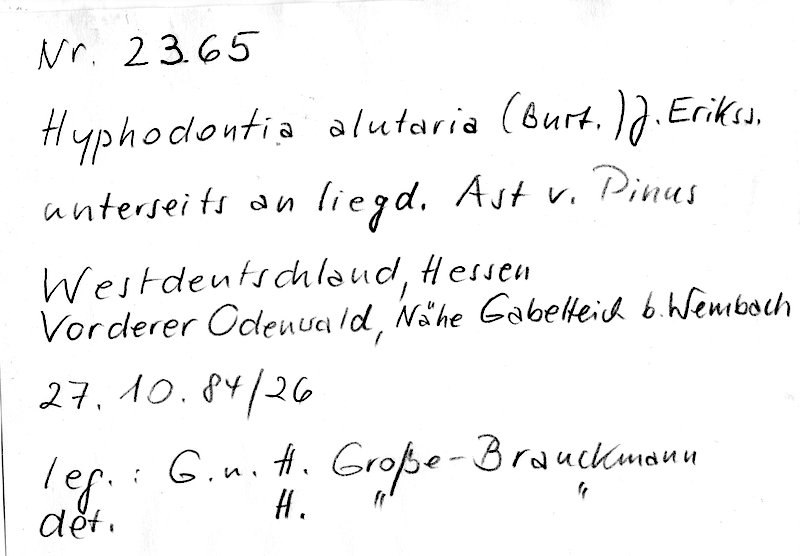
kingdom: Fungi
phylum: Basidiomycota
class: Agaricomycetes
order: Hymenochaetales
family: Hyphodontiaceae
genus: Hyphodontia
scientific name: Hyphodontia alutaria
